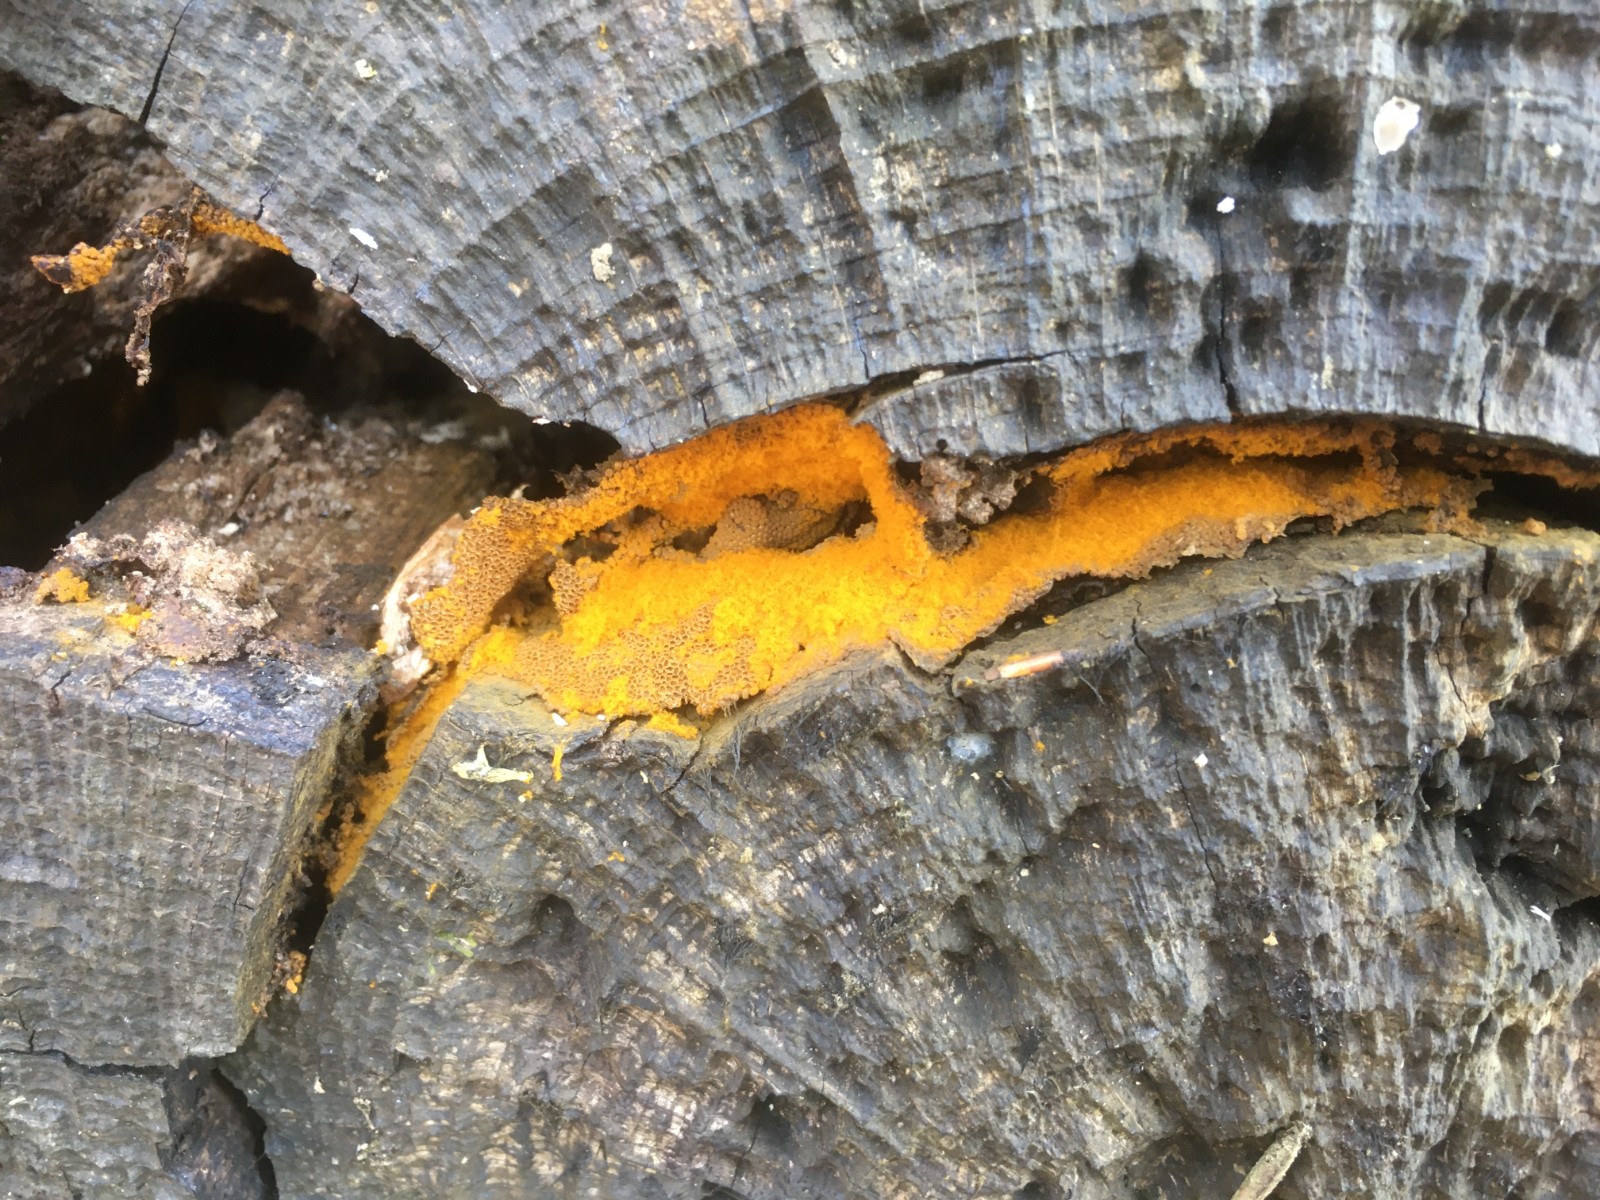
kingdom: Protozoa
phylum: Mycetozoa
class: Myxomycetes
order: Trichiales
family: Trichiaceae
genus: Trichia
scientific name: Trichia scabra
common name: tæppe-hårbold
